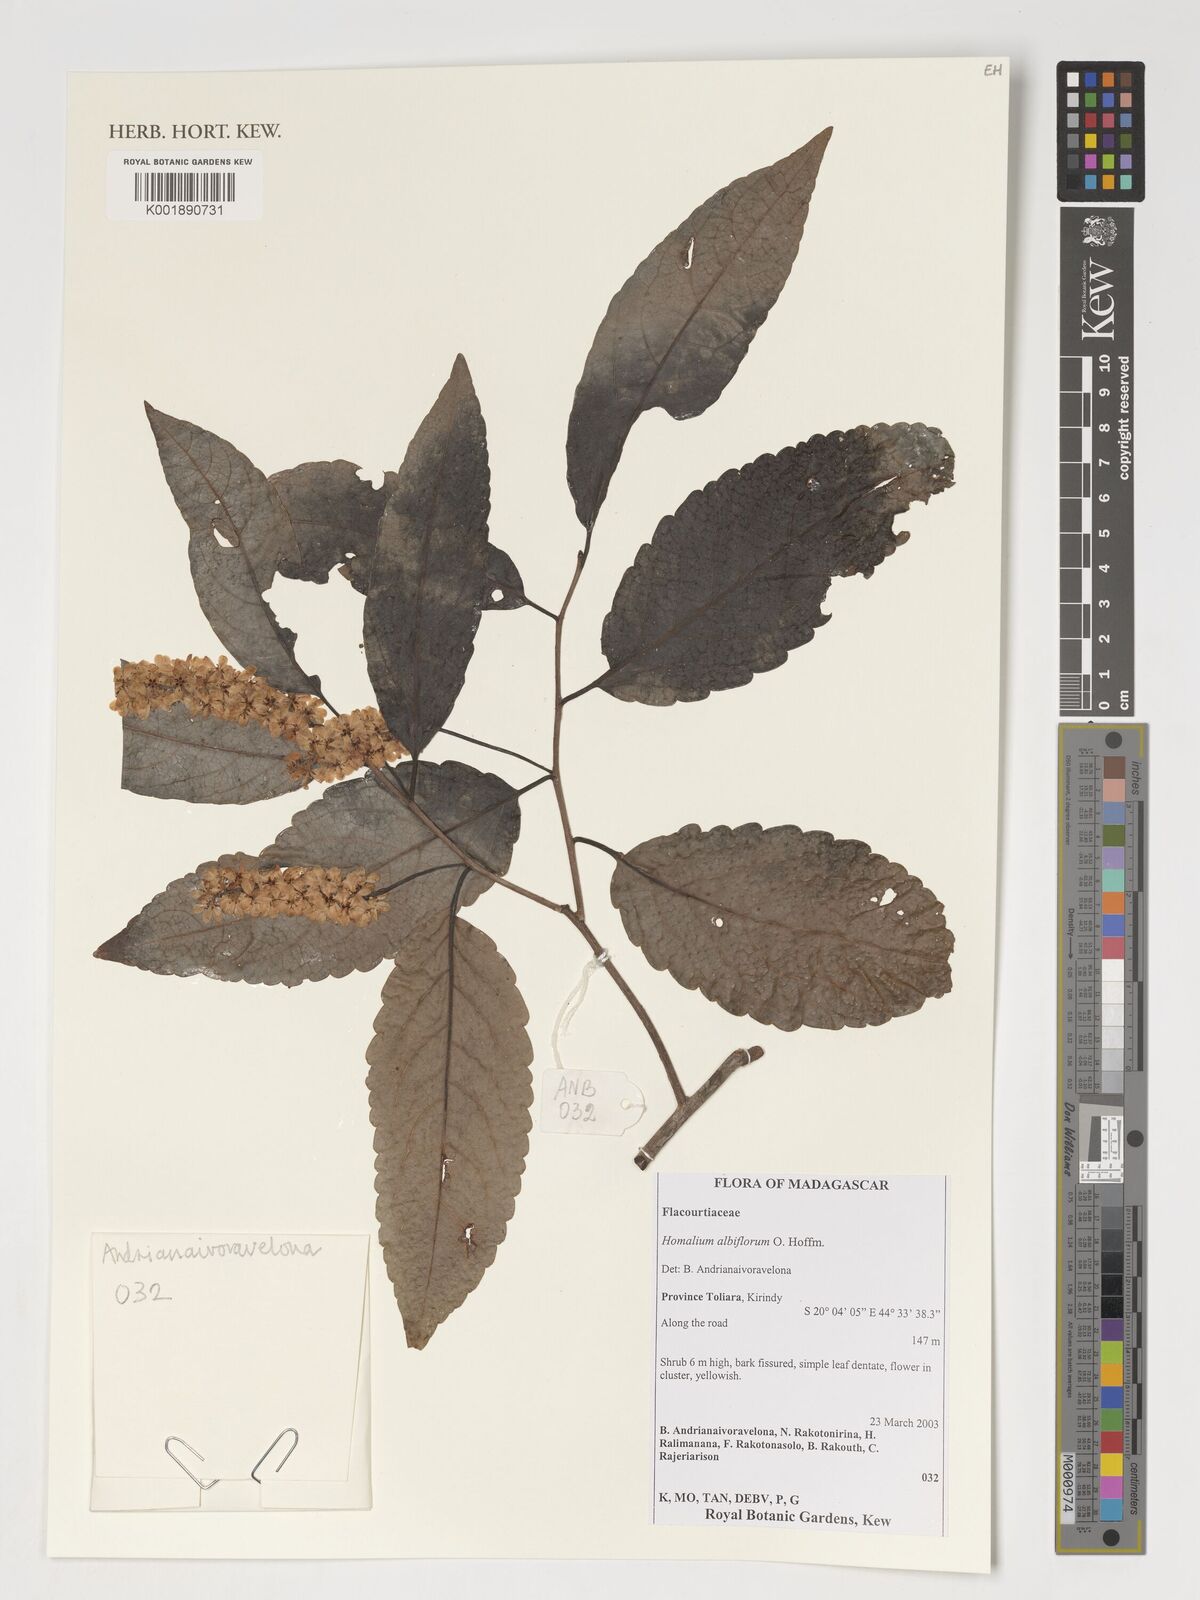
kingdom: Plantae
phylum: Tracheophyta
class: Magnoliopsida
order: Malpighiales
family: Salicaceae
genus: Homalium
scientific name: Homalium albiflorum
